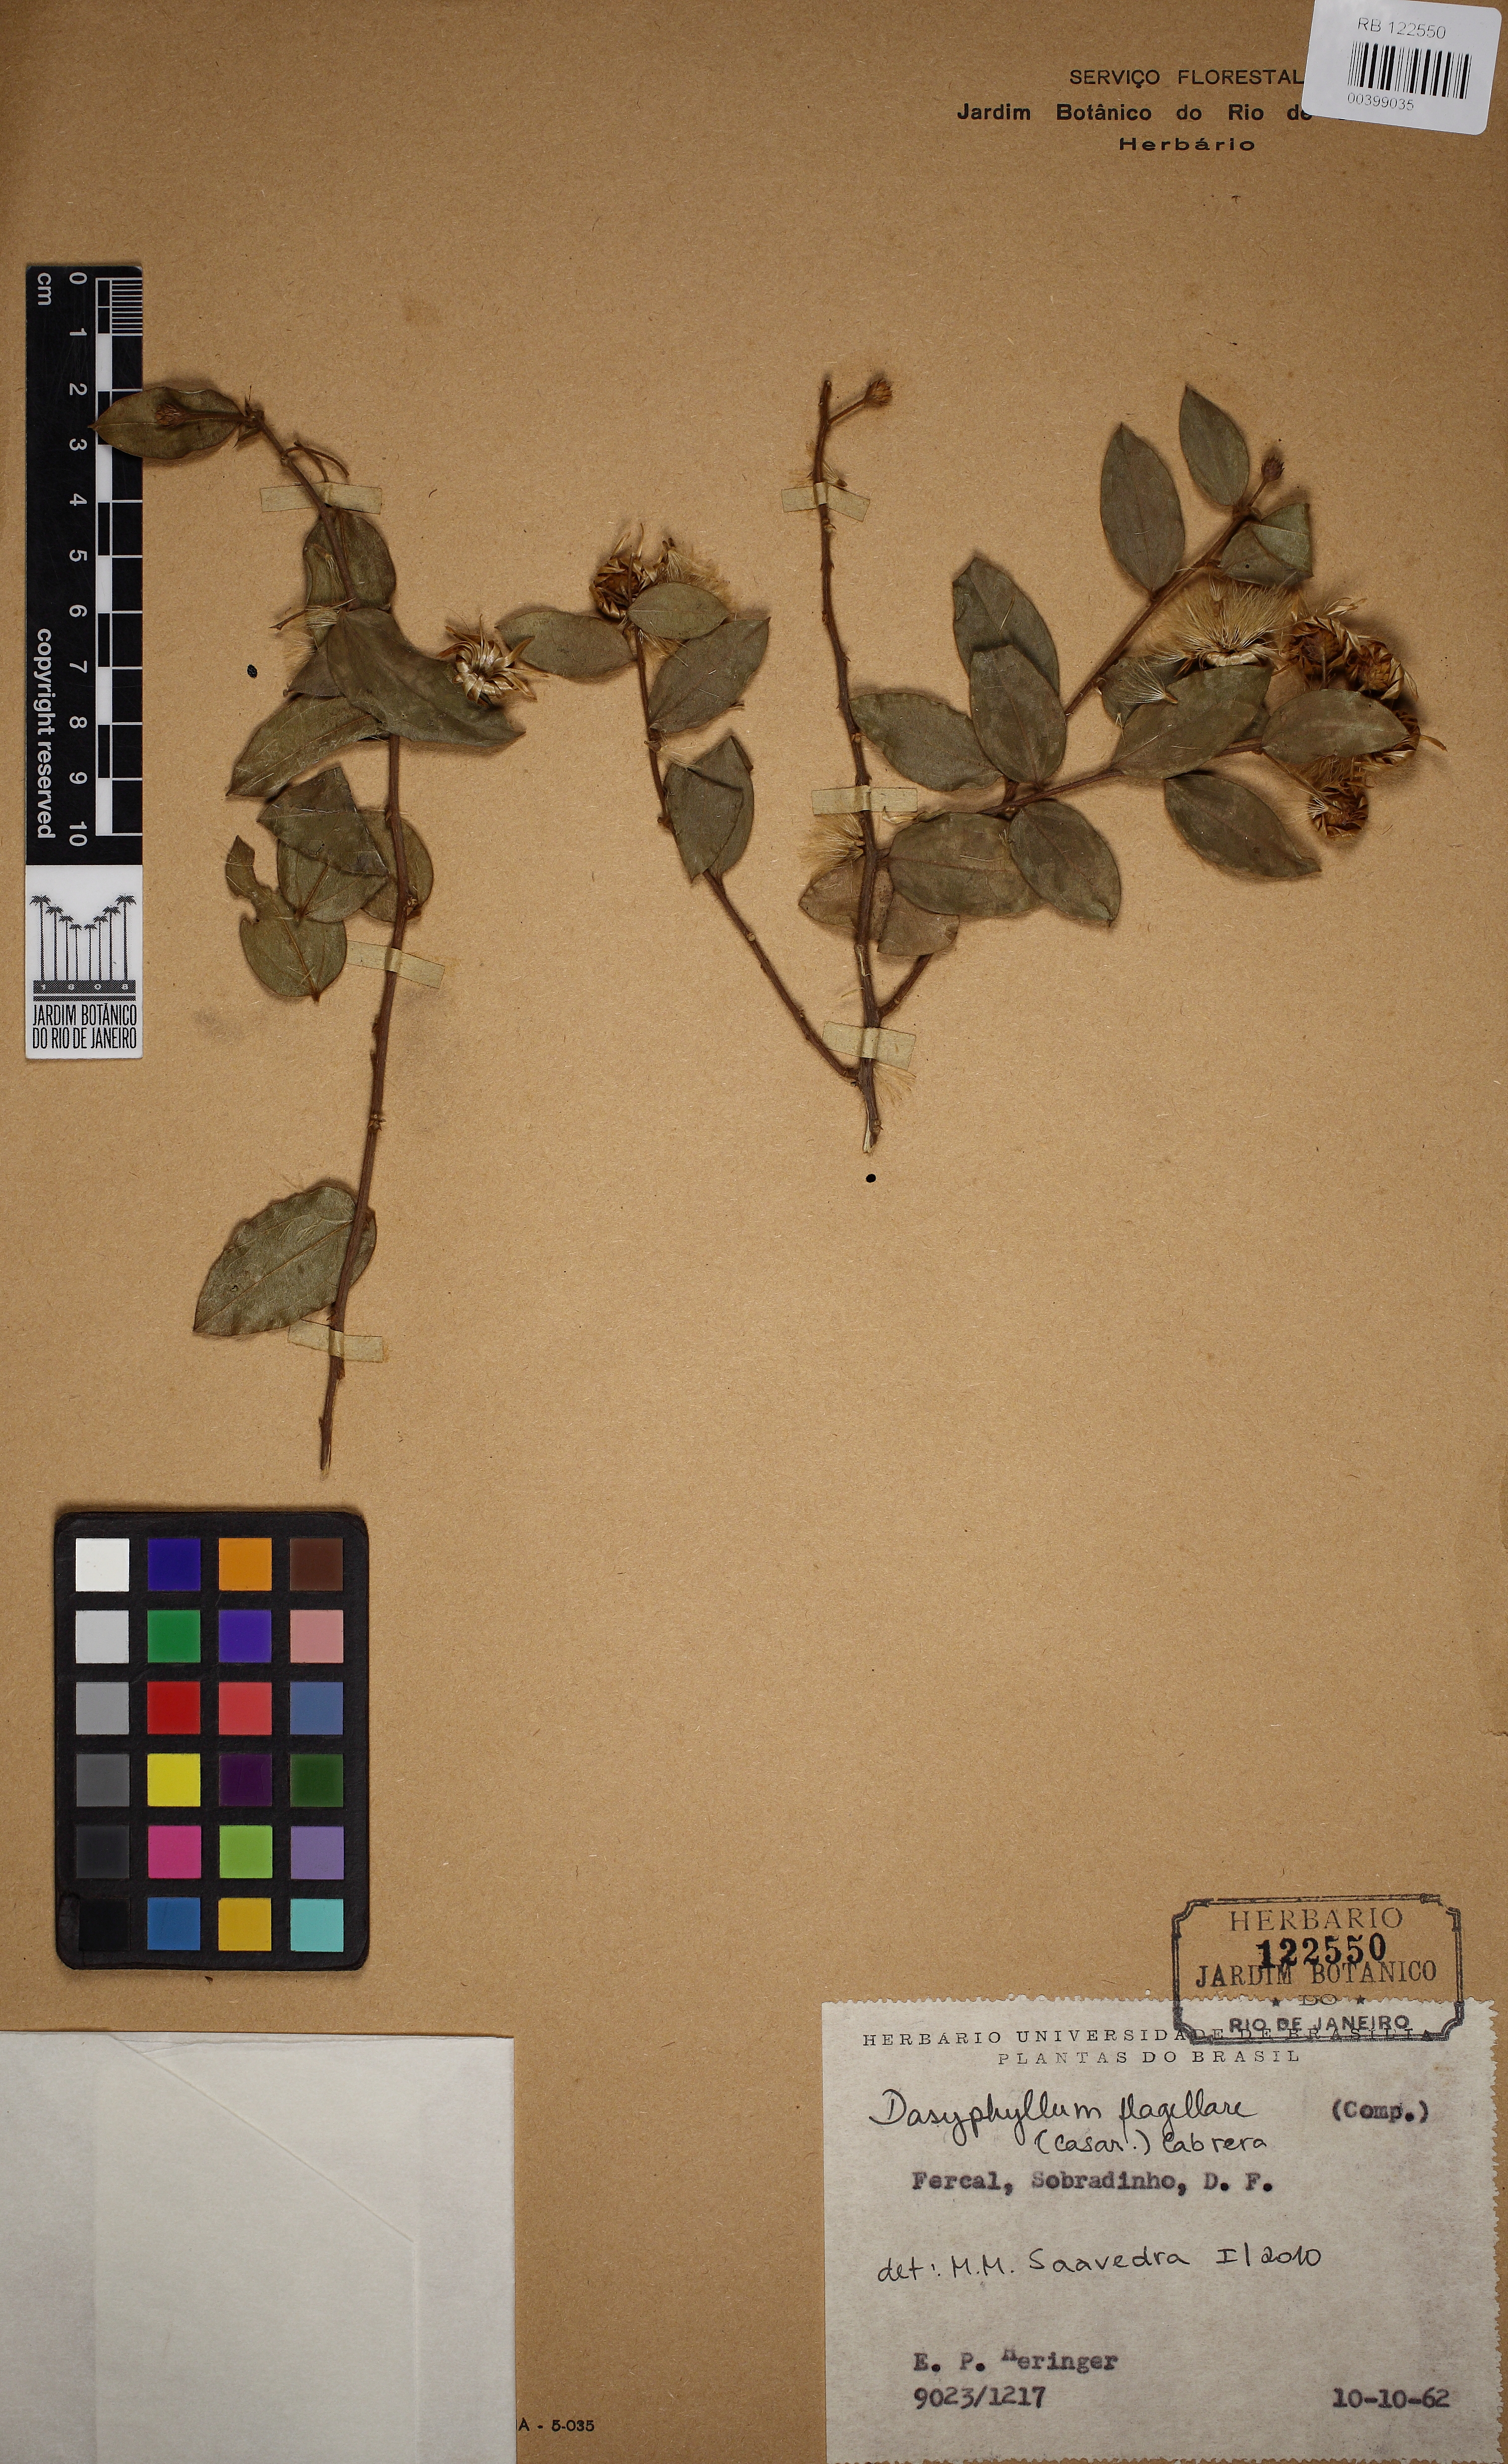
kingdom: Plantae
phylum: Tracheophyta
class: Magnoliopsida
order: Asterales
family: Asteraceae
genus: Dasyphyllum
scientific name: Dasyphyllum flagellare
